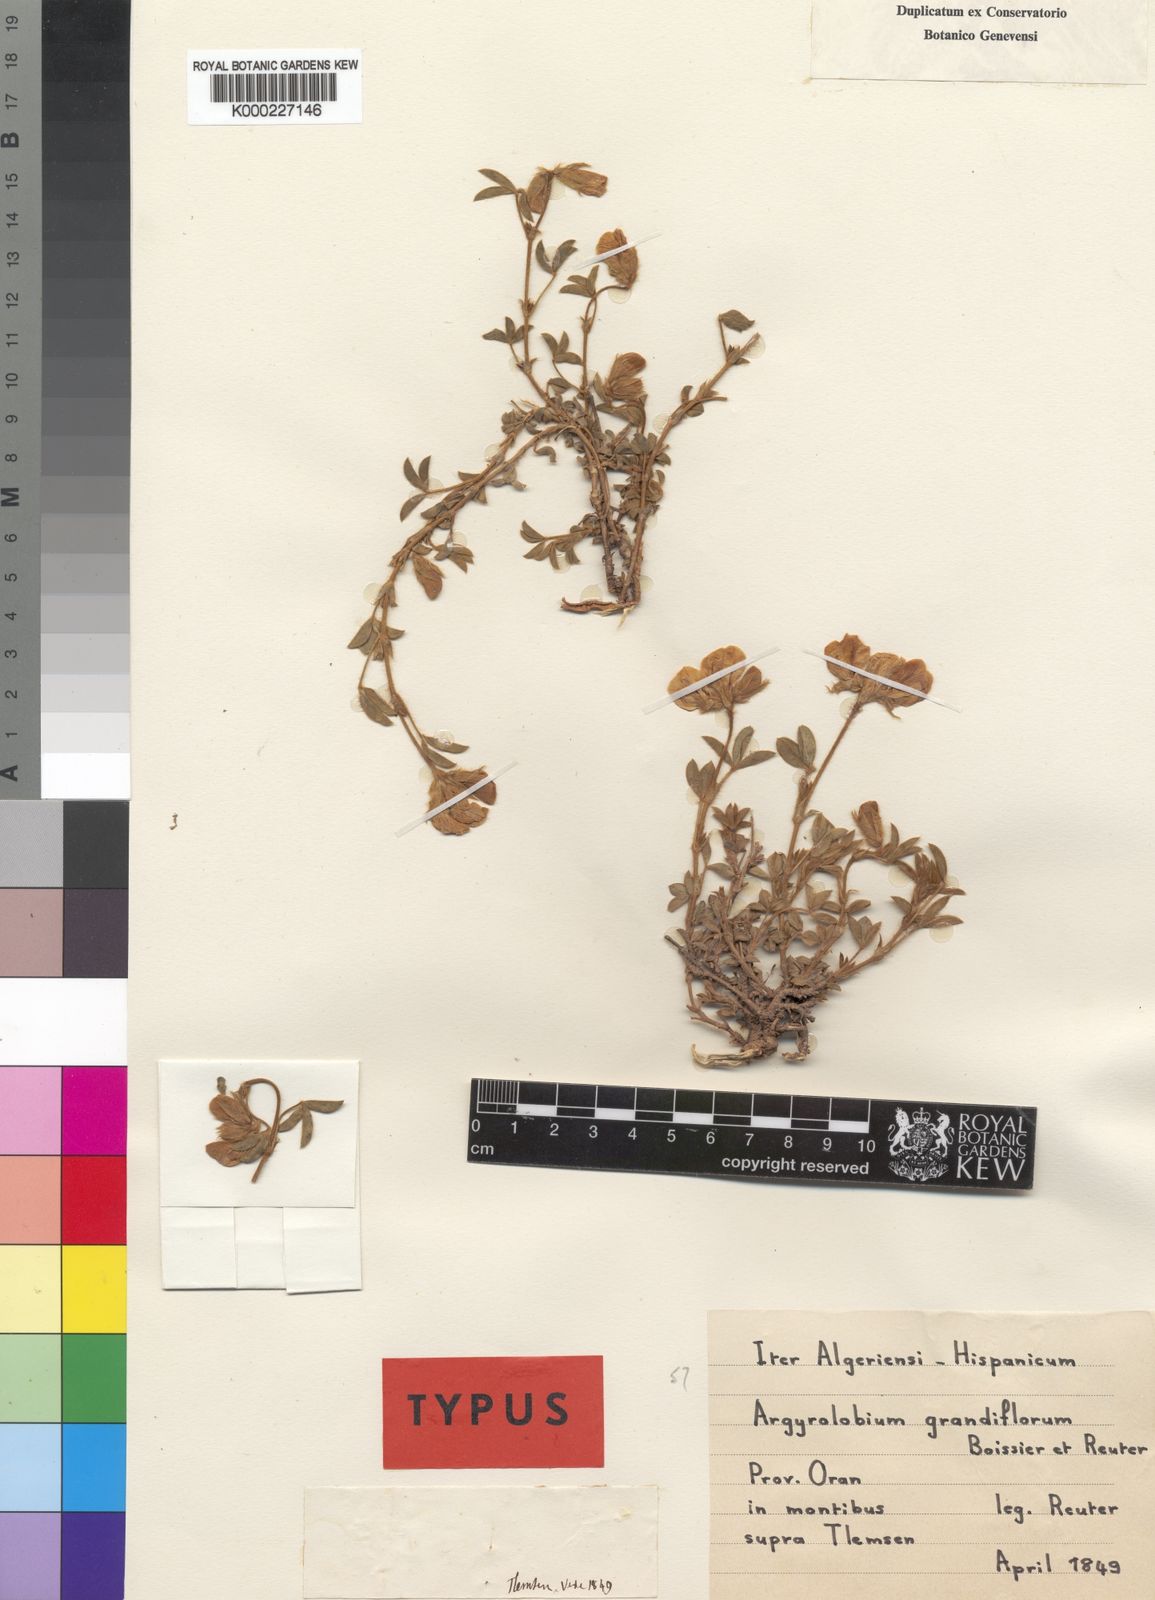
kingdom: Plantae
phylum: Tracheophyta
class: Magnoliopsida
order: Fabales
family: Fabaceae
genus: Argyrolobium
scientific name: Argyrolobium zanonii
